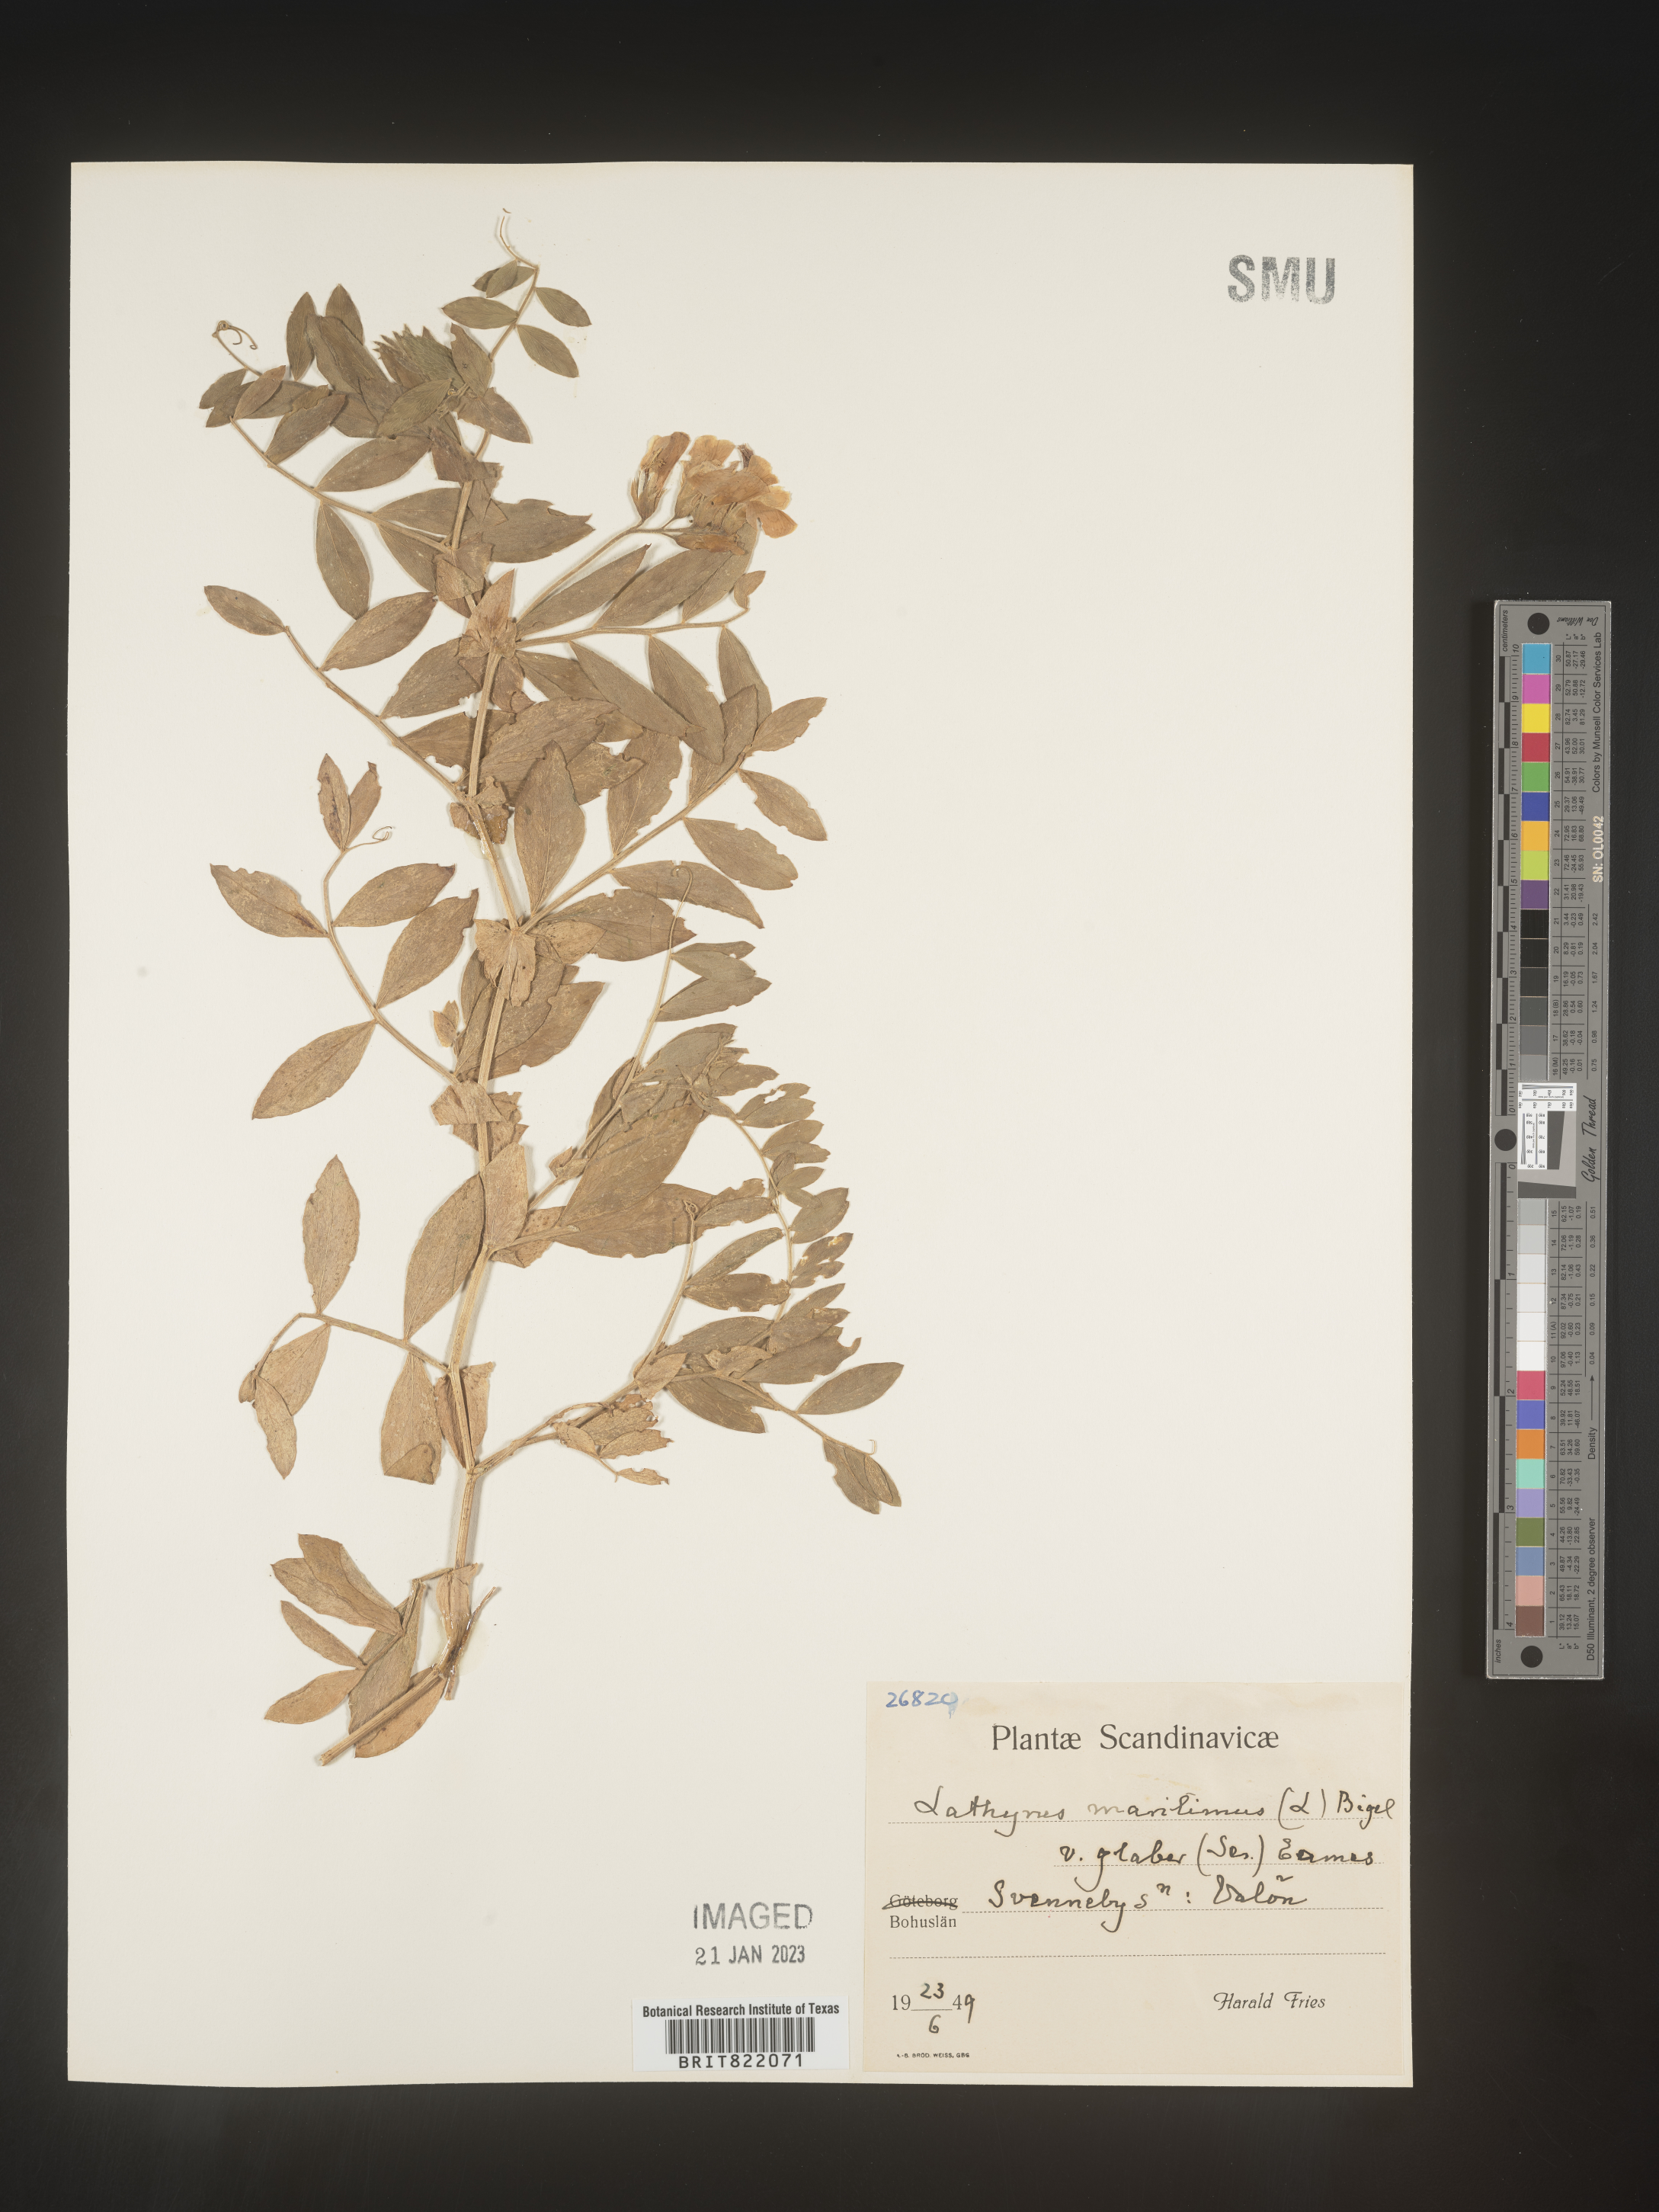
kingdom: Plantae
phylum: Tracheophyta
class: Magnoliopsida
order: Fabales
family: Fabaceae
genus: Lathyrus
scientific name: Lathyrus
